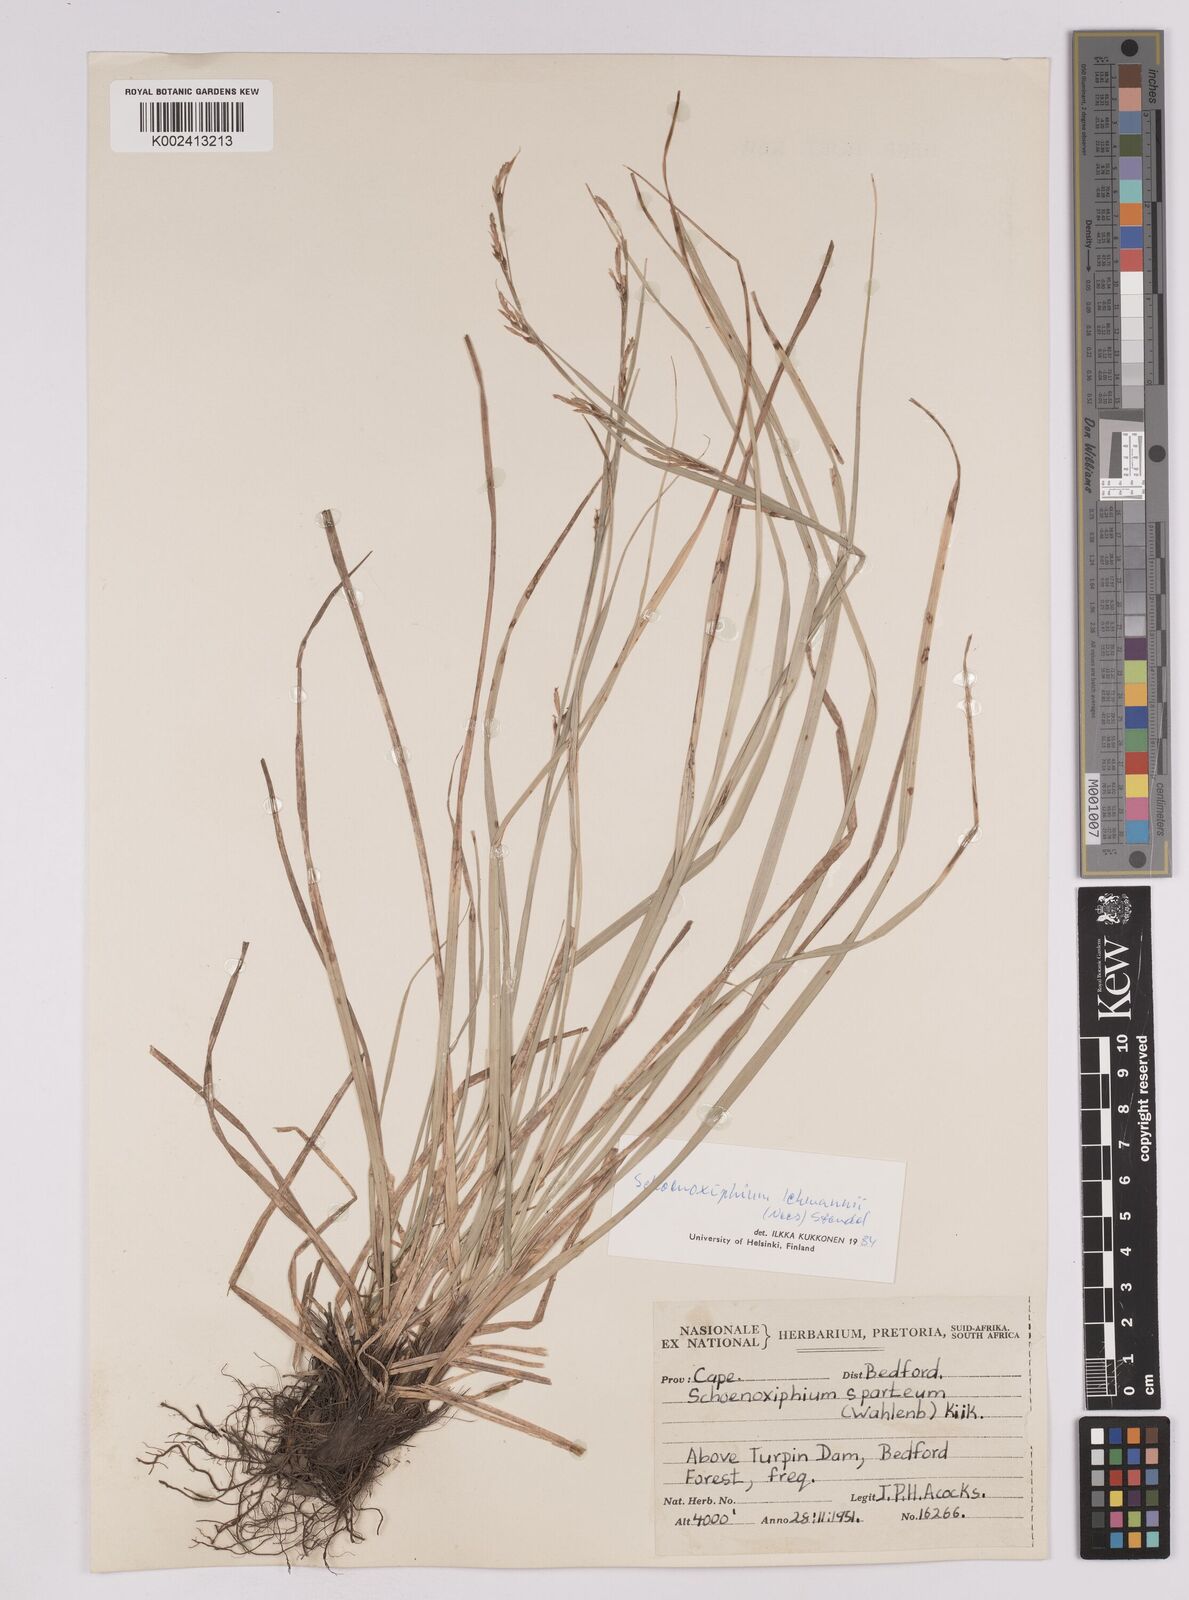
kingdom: Plantae
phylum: Tracheophyta
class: Liliopsida
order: Poales
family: Cyperaceae
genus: Carex
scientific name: Carex uhligii
